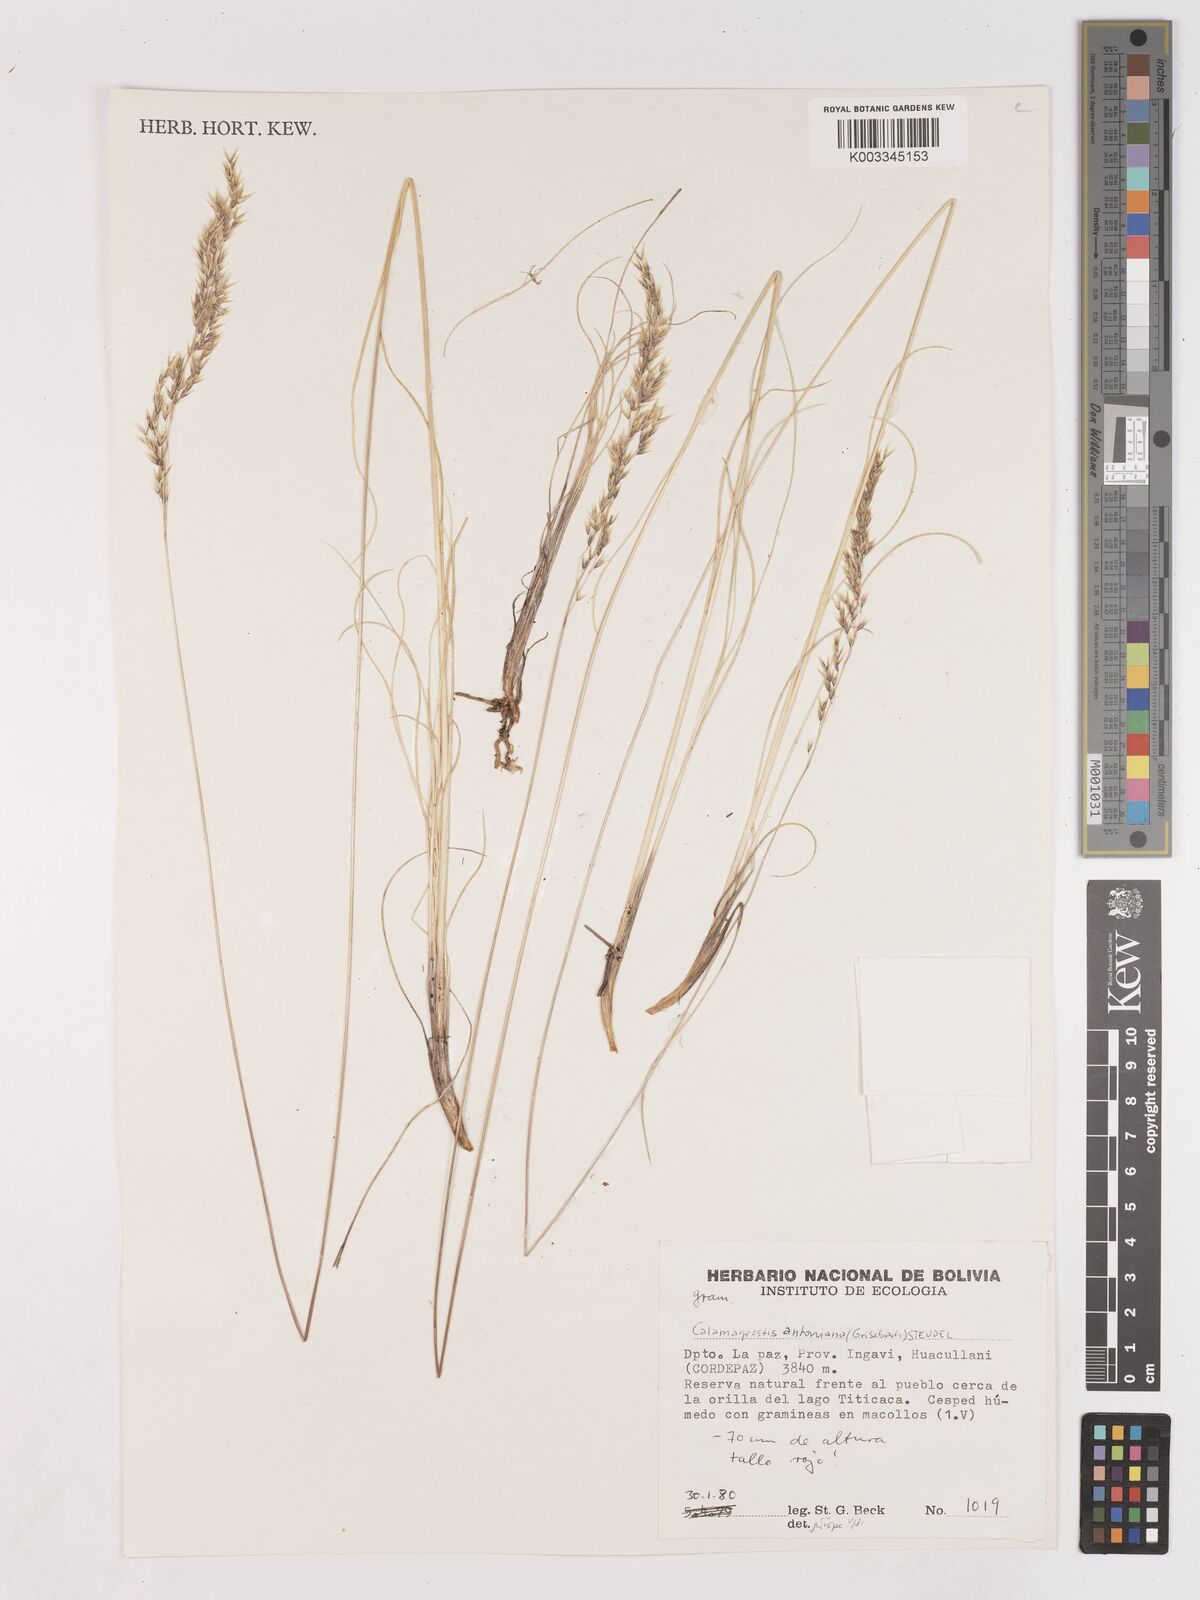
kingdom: Plantae
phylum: Tracheophyta
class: Liliopsida
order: Poales
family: Poaceae
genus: Calamagrostis
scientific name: Calamagrostis
